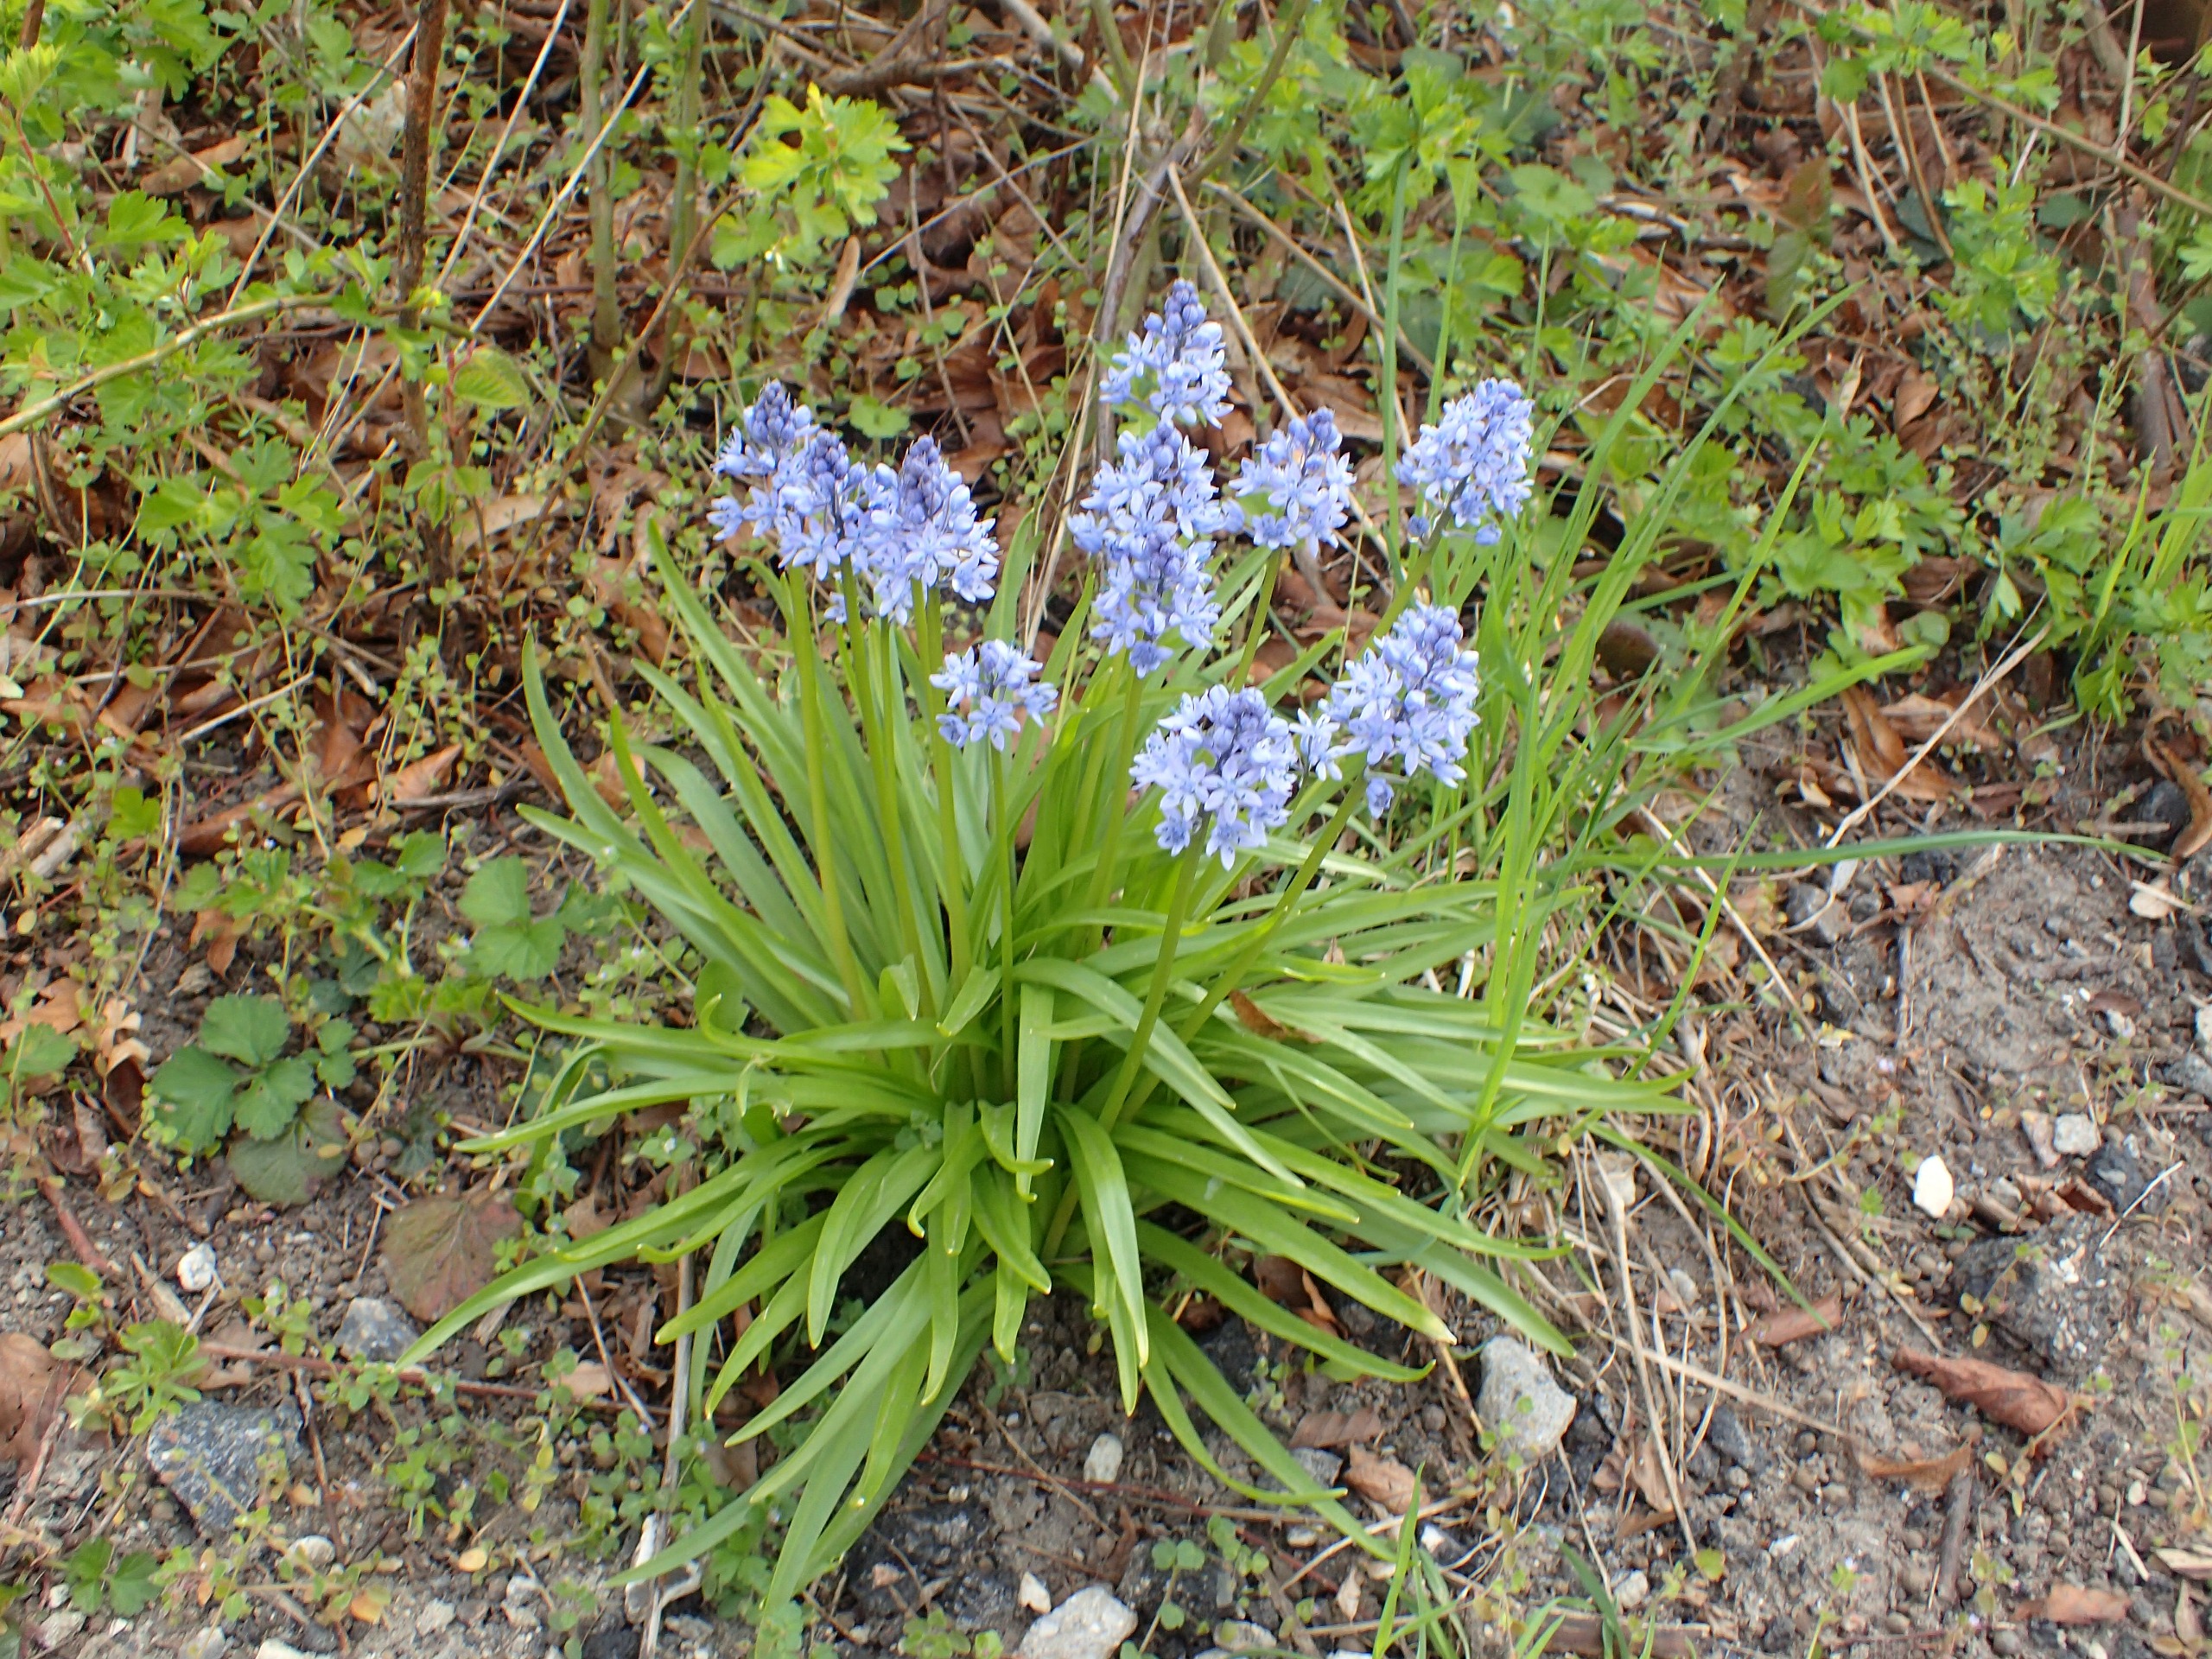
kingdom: Plantae
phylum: Tracheophyta
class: Liliopsida
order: Asparagales
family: Asparagaceae
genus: Hyacinthoides
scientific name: Hyacinthoides italica
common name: Italiensk skilla
